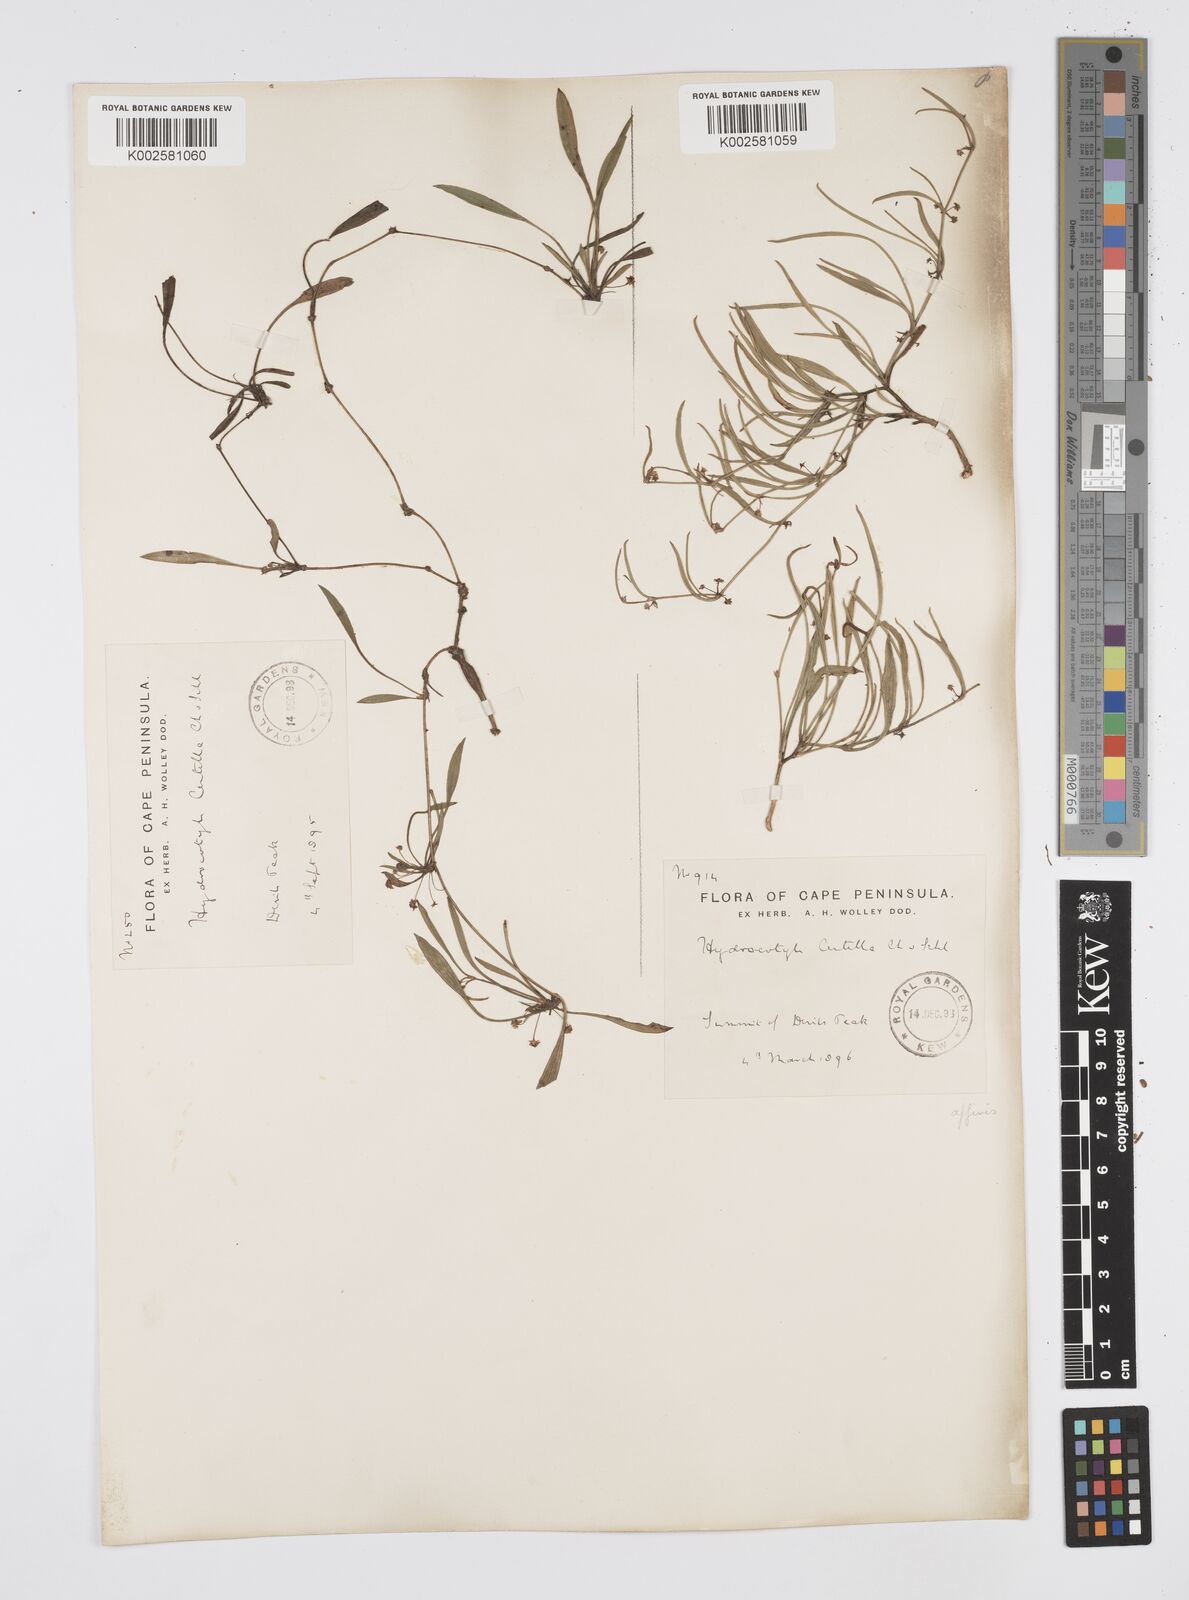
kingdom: Plantae
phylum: Tracheophyta
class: Magnoliopsida
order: Apiales
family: Apiaceae
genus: Centella
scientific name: Centella glabrata
